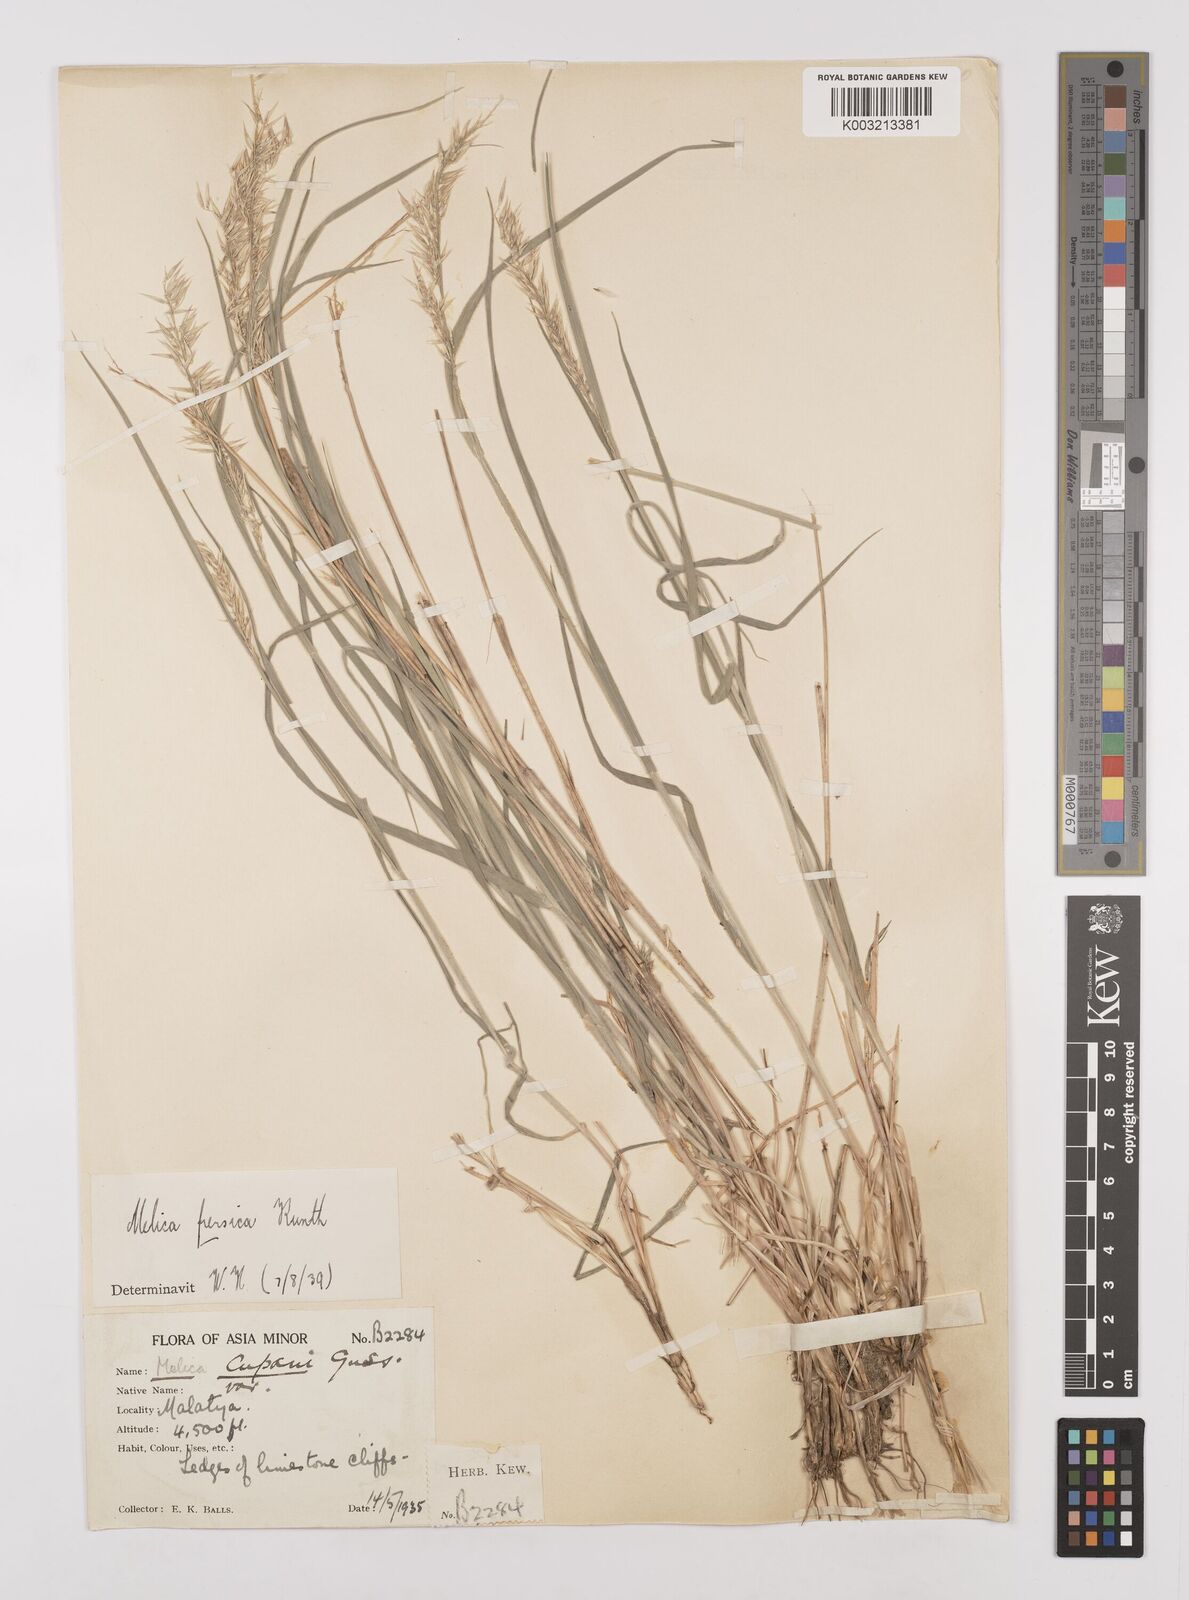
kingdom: Plantae
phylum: Tracheophyta
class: Liliopsida
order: Poales
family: Poaceae
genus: Melica
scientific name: Melica persica
